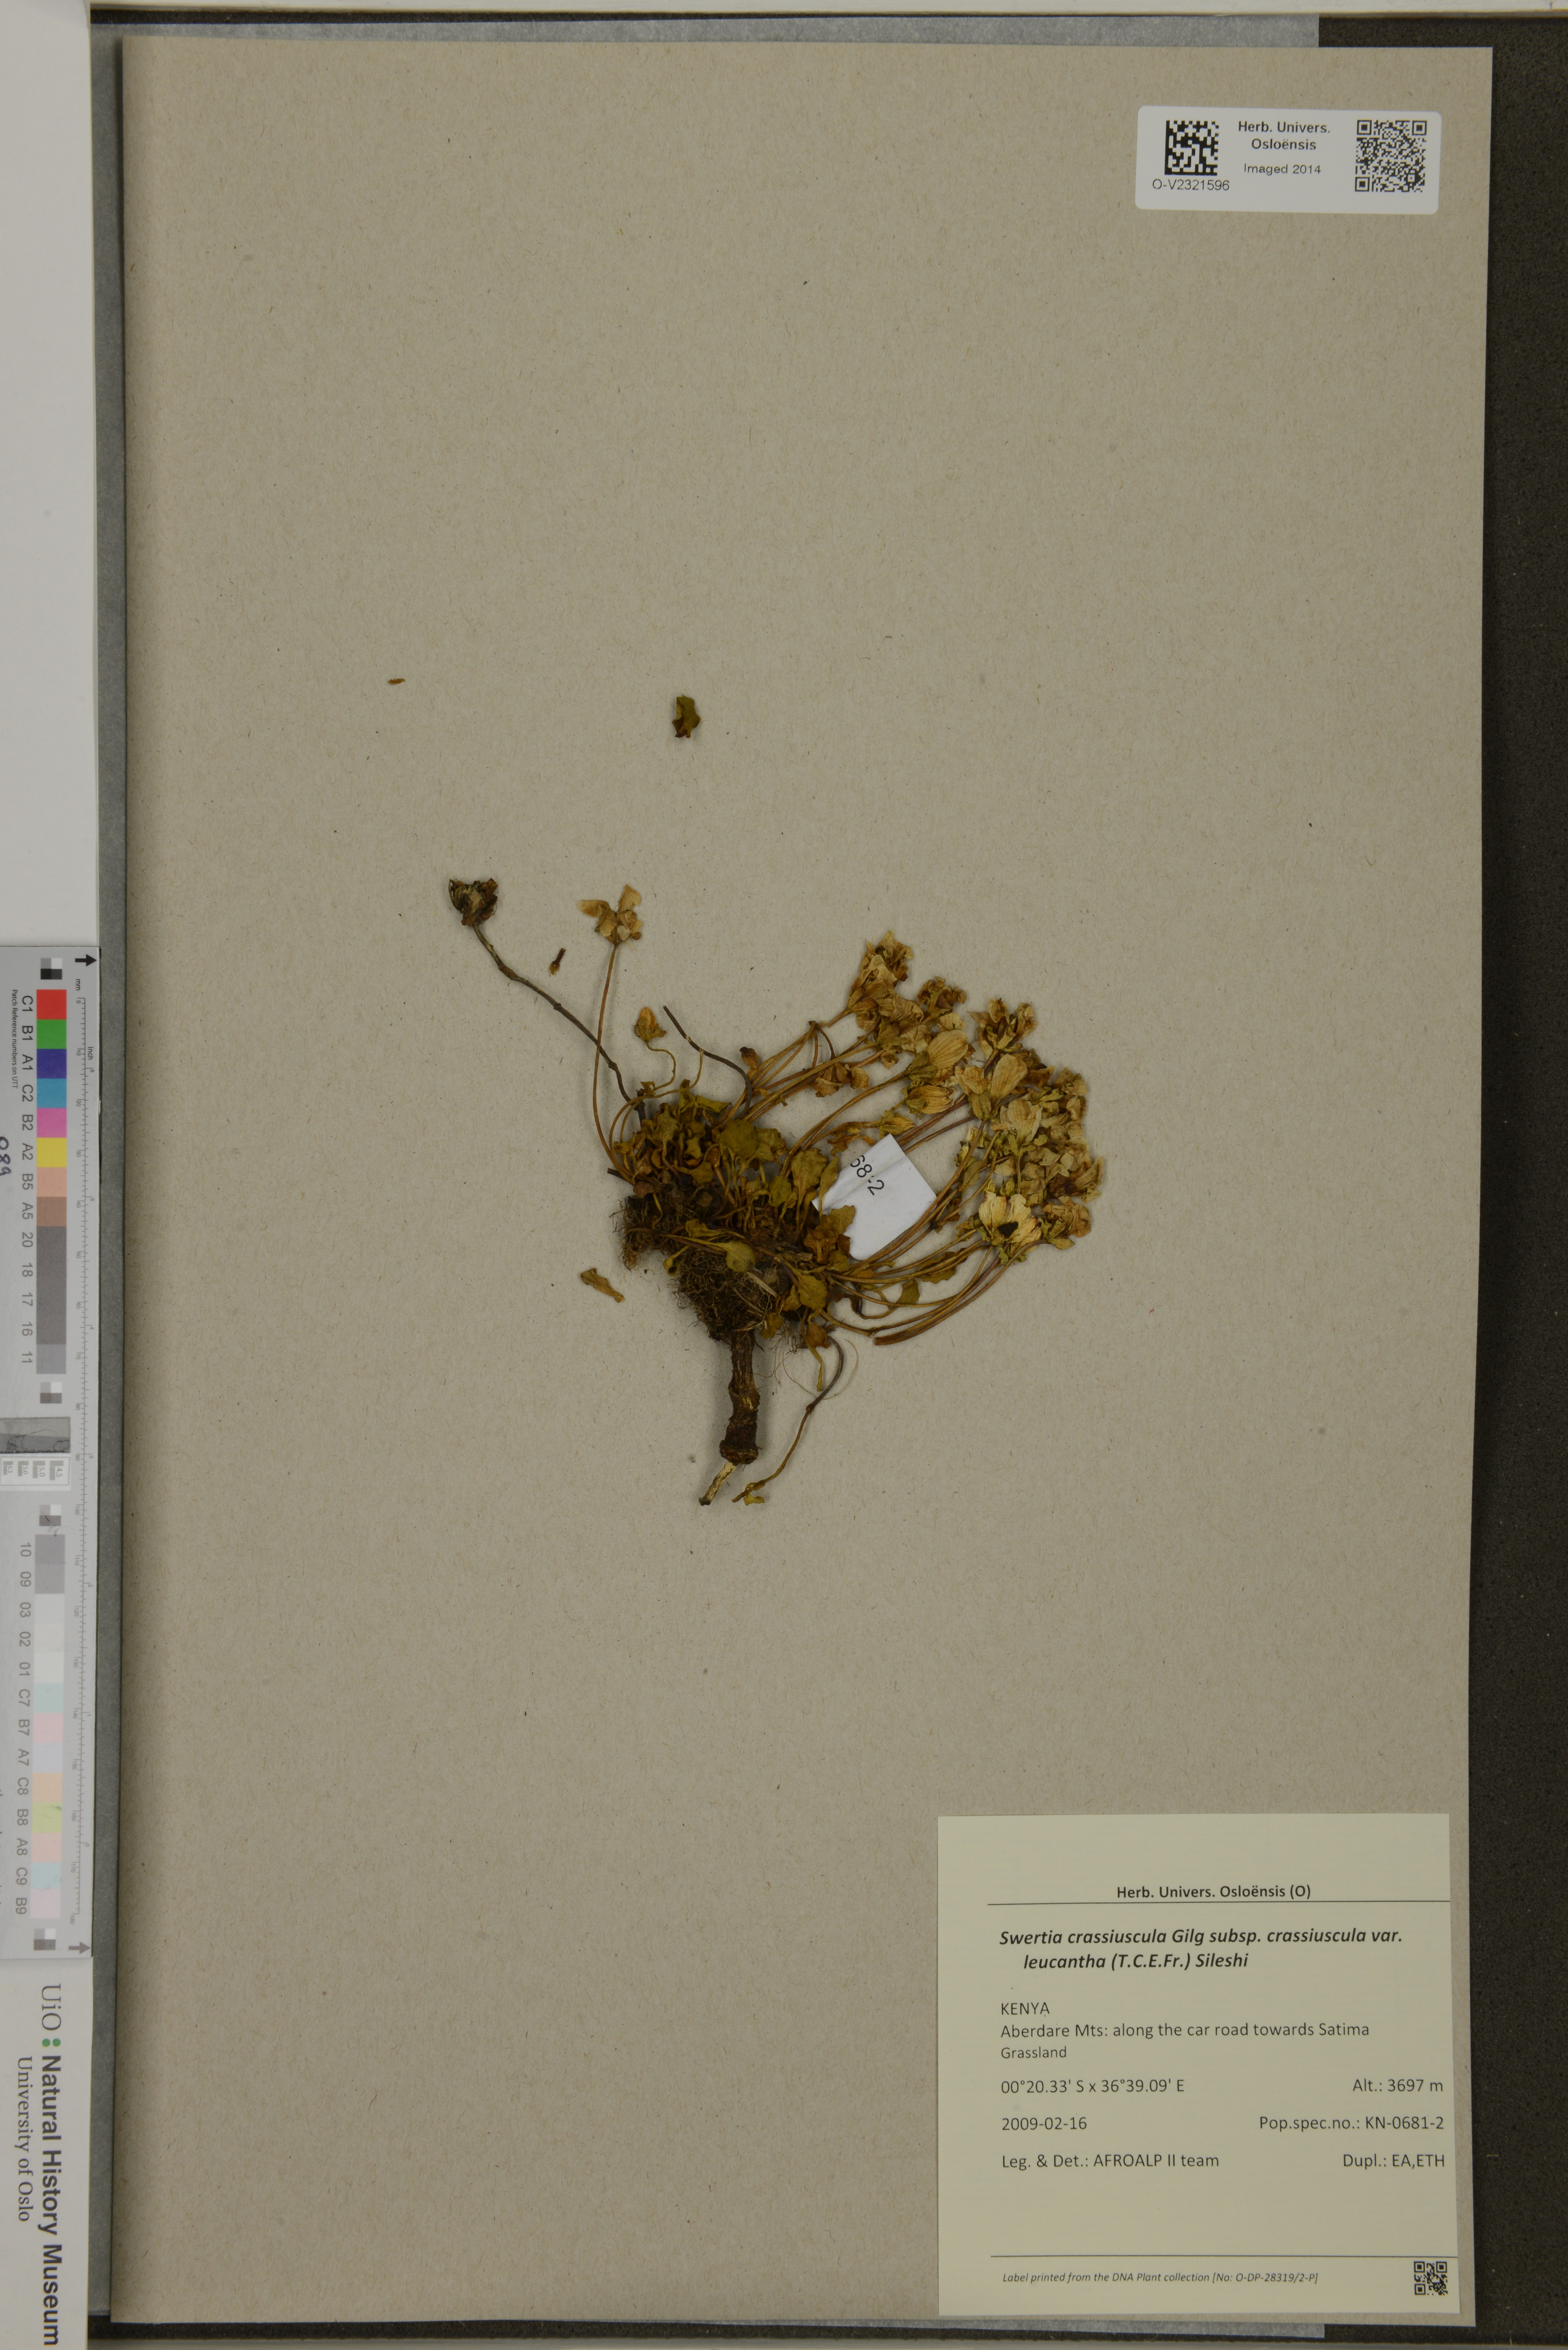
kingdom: Plantae
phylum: Tracheophyta
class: Magnoliopsida
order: Gentianales
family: Gentianaceae
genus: Swertia
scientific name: Swertia crassiuscula
